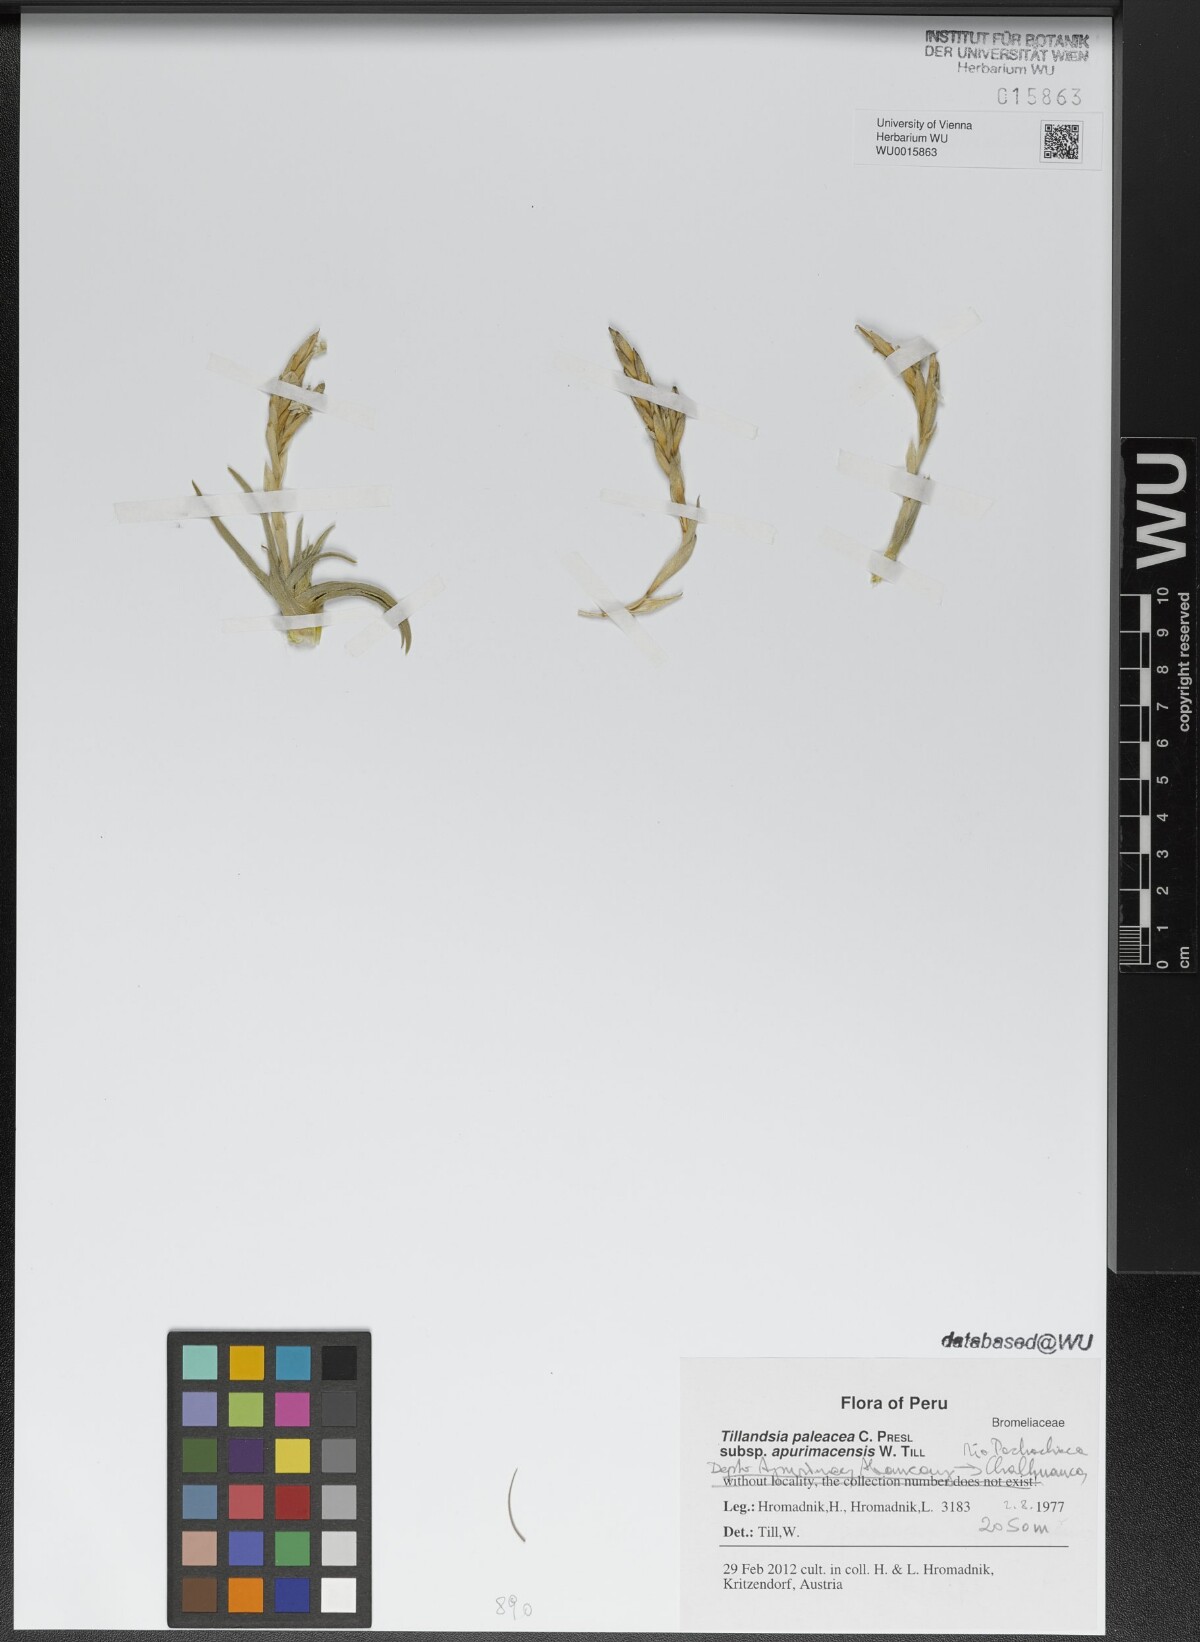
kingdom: Plantae
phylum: Tracheophyta
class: Liliopsida
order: Poales
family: Bromeliaceae
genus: Tillandsia
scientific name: Tillandsia paleacea
